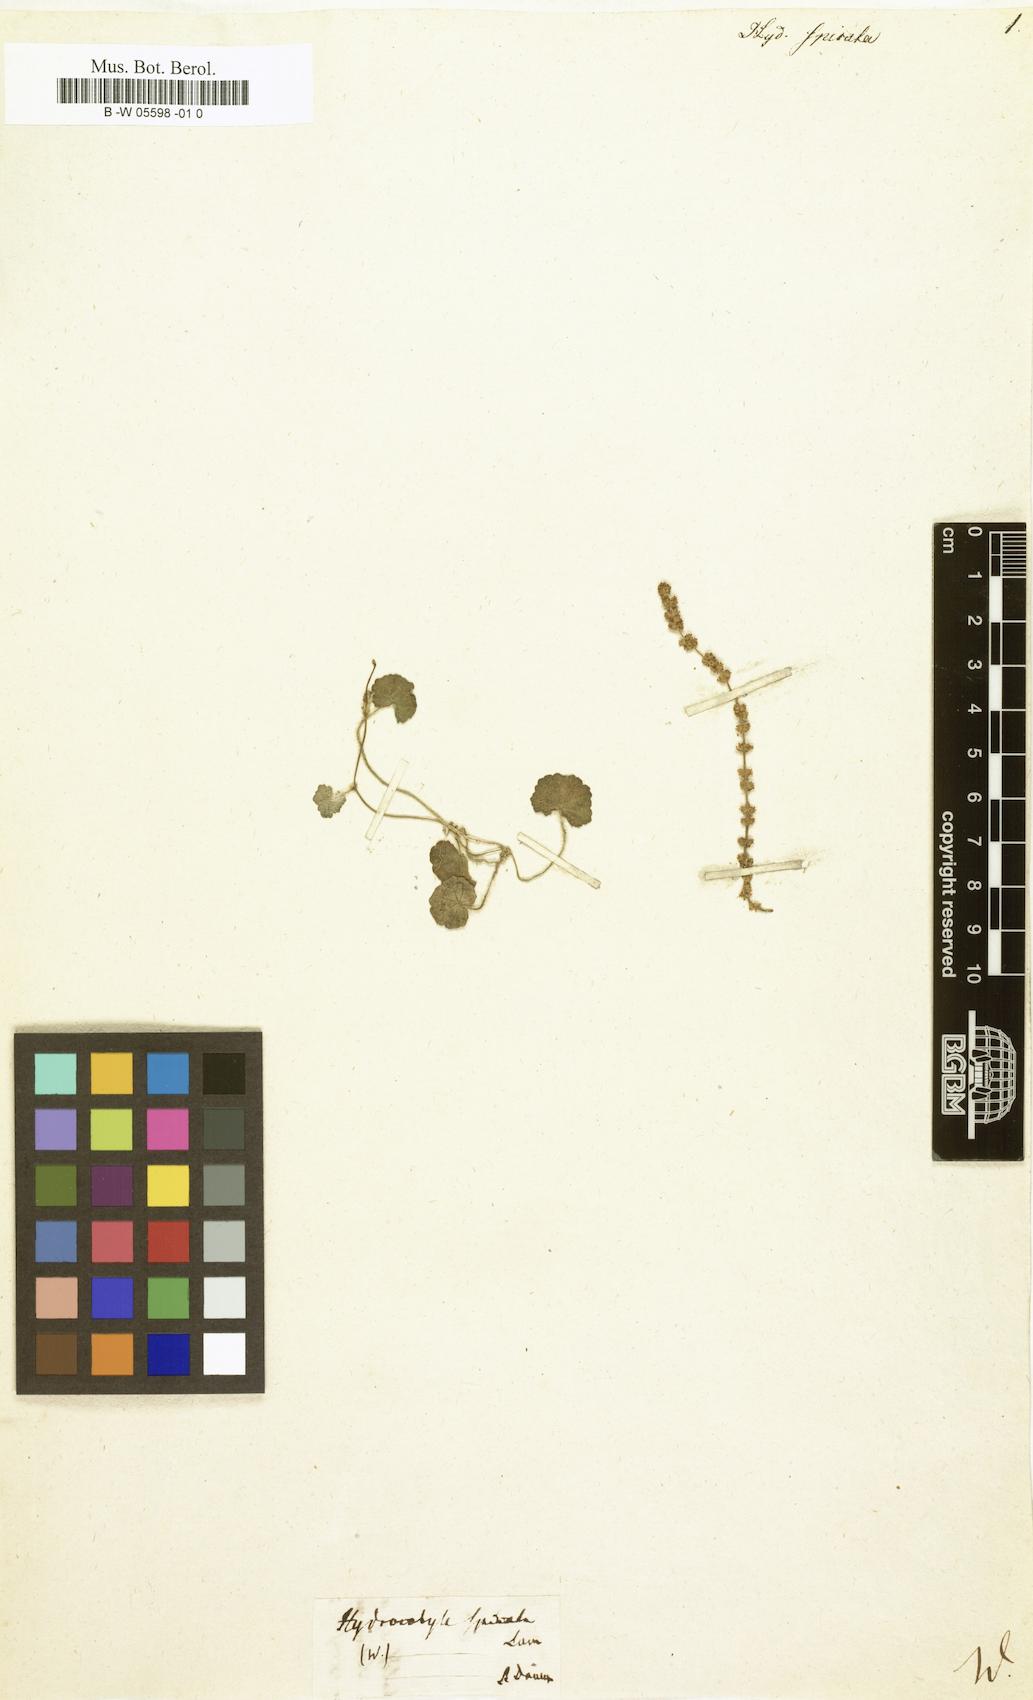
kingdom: Plantae
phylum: Tracheophyta
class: Magnoliopsida
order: Apiales
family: Araliaceae
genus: Hydrocotyle
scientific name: Hydrocotyle hirsuta
